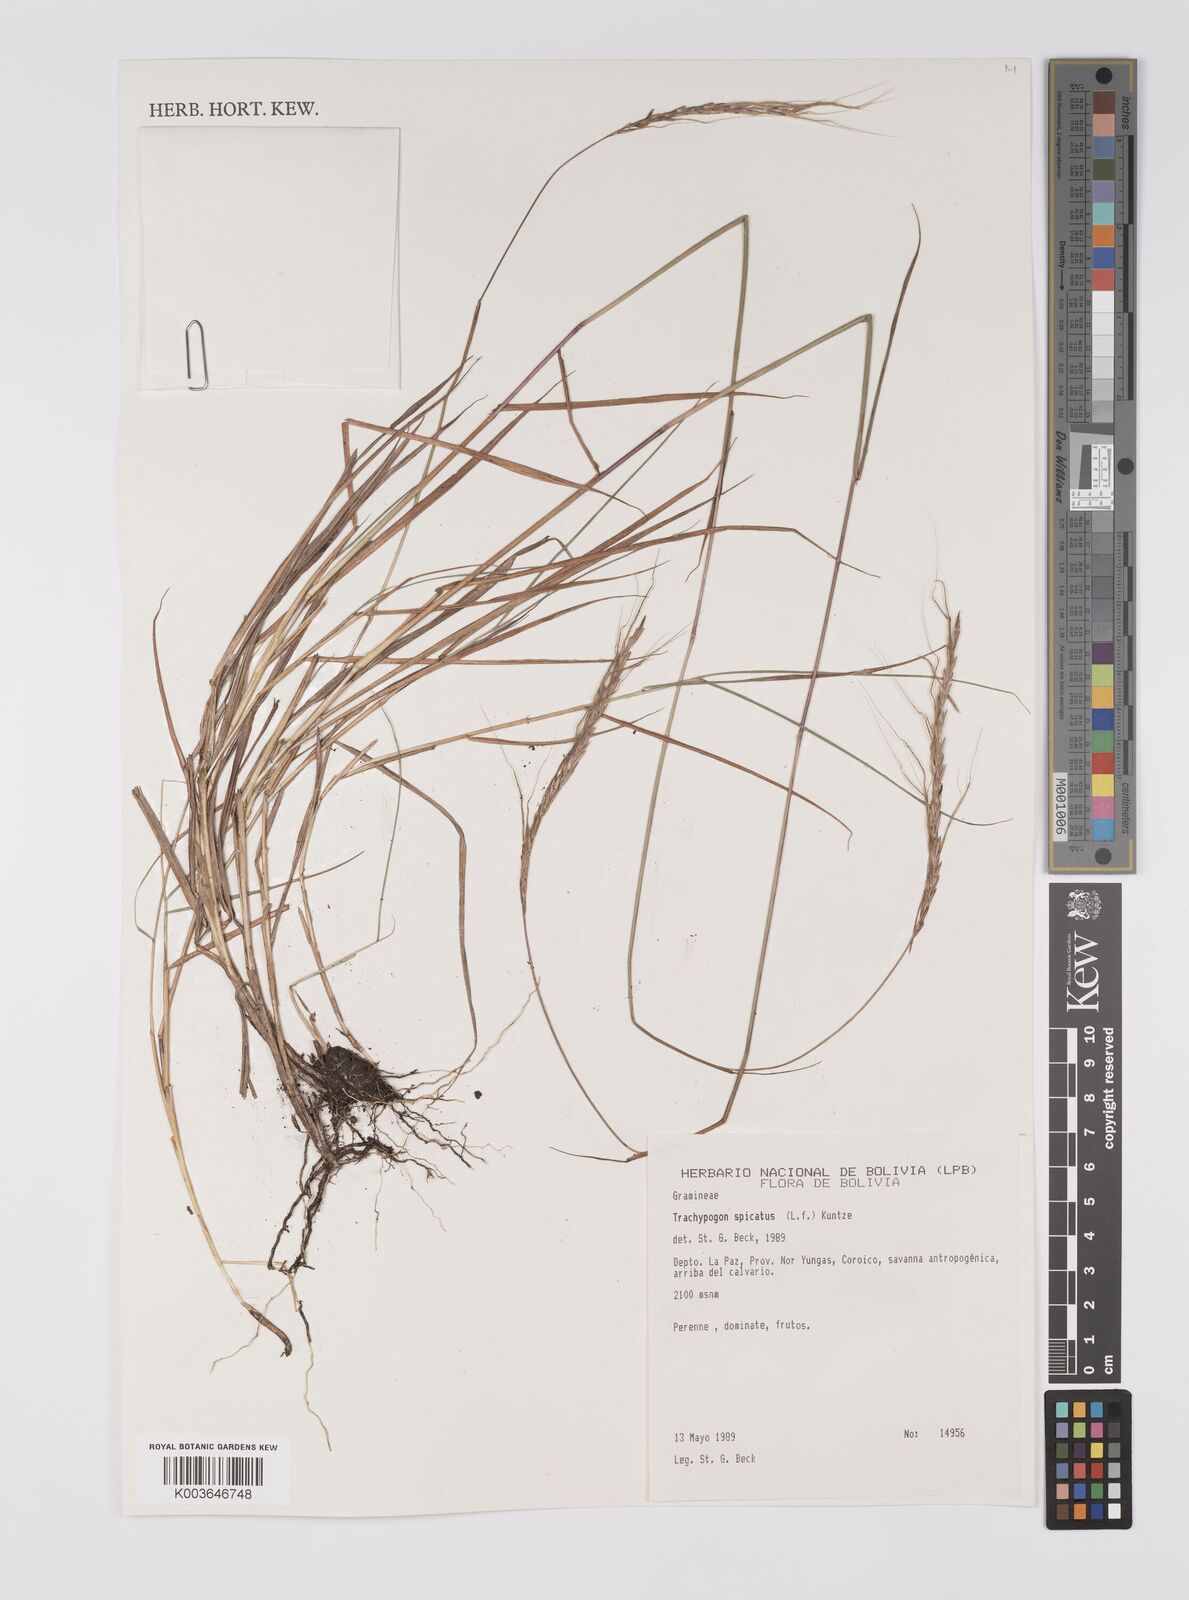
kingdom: Plantae
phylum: Tracheophyta
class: Liliopsida
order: Poales
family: Poaceae
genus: Trachypogon
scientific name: Trachypogon spicatus
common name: Crinkle-awn
